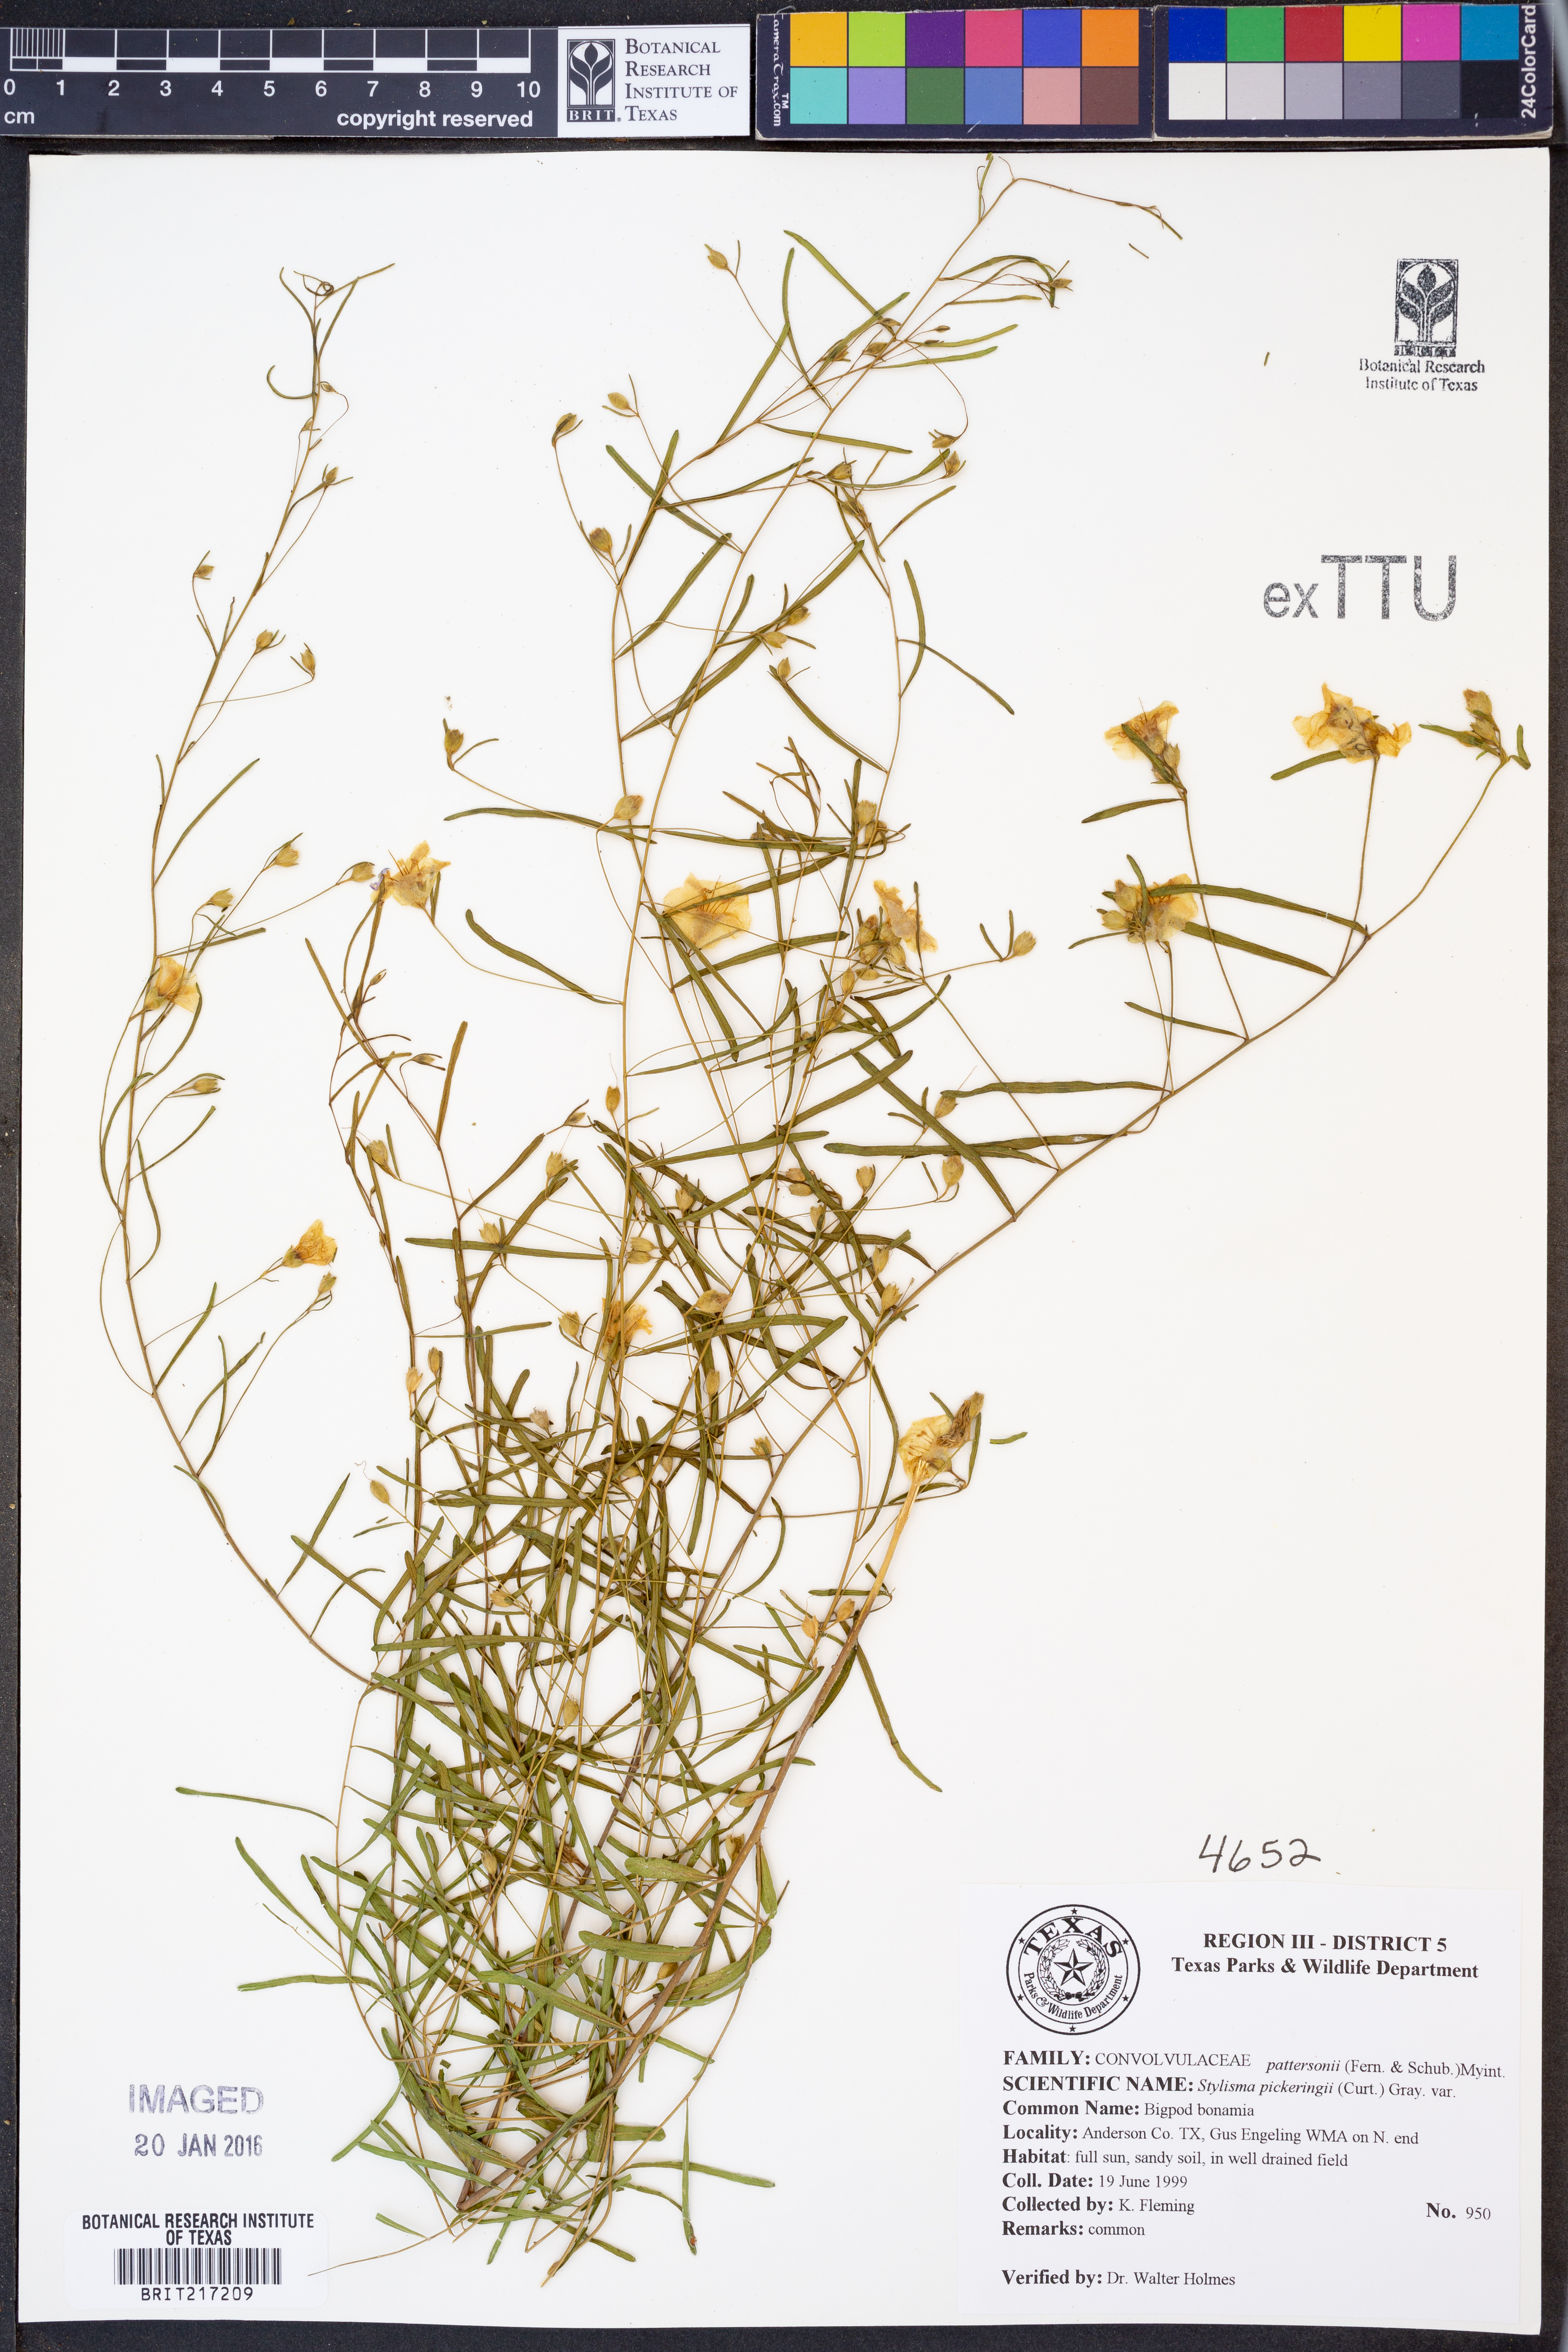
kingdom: Plantae
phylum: Tracheophyta
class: Magnoliopsida
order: Solanales
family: Convolvulaceae
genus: Stylisma
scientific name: Stylisma pickeringii
